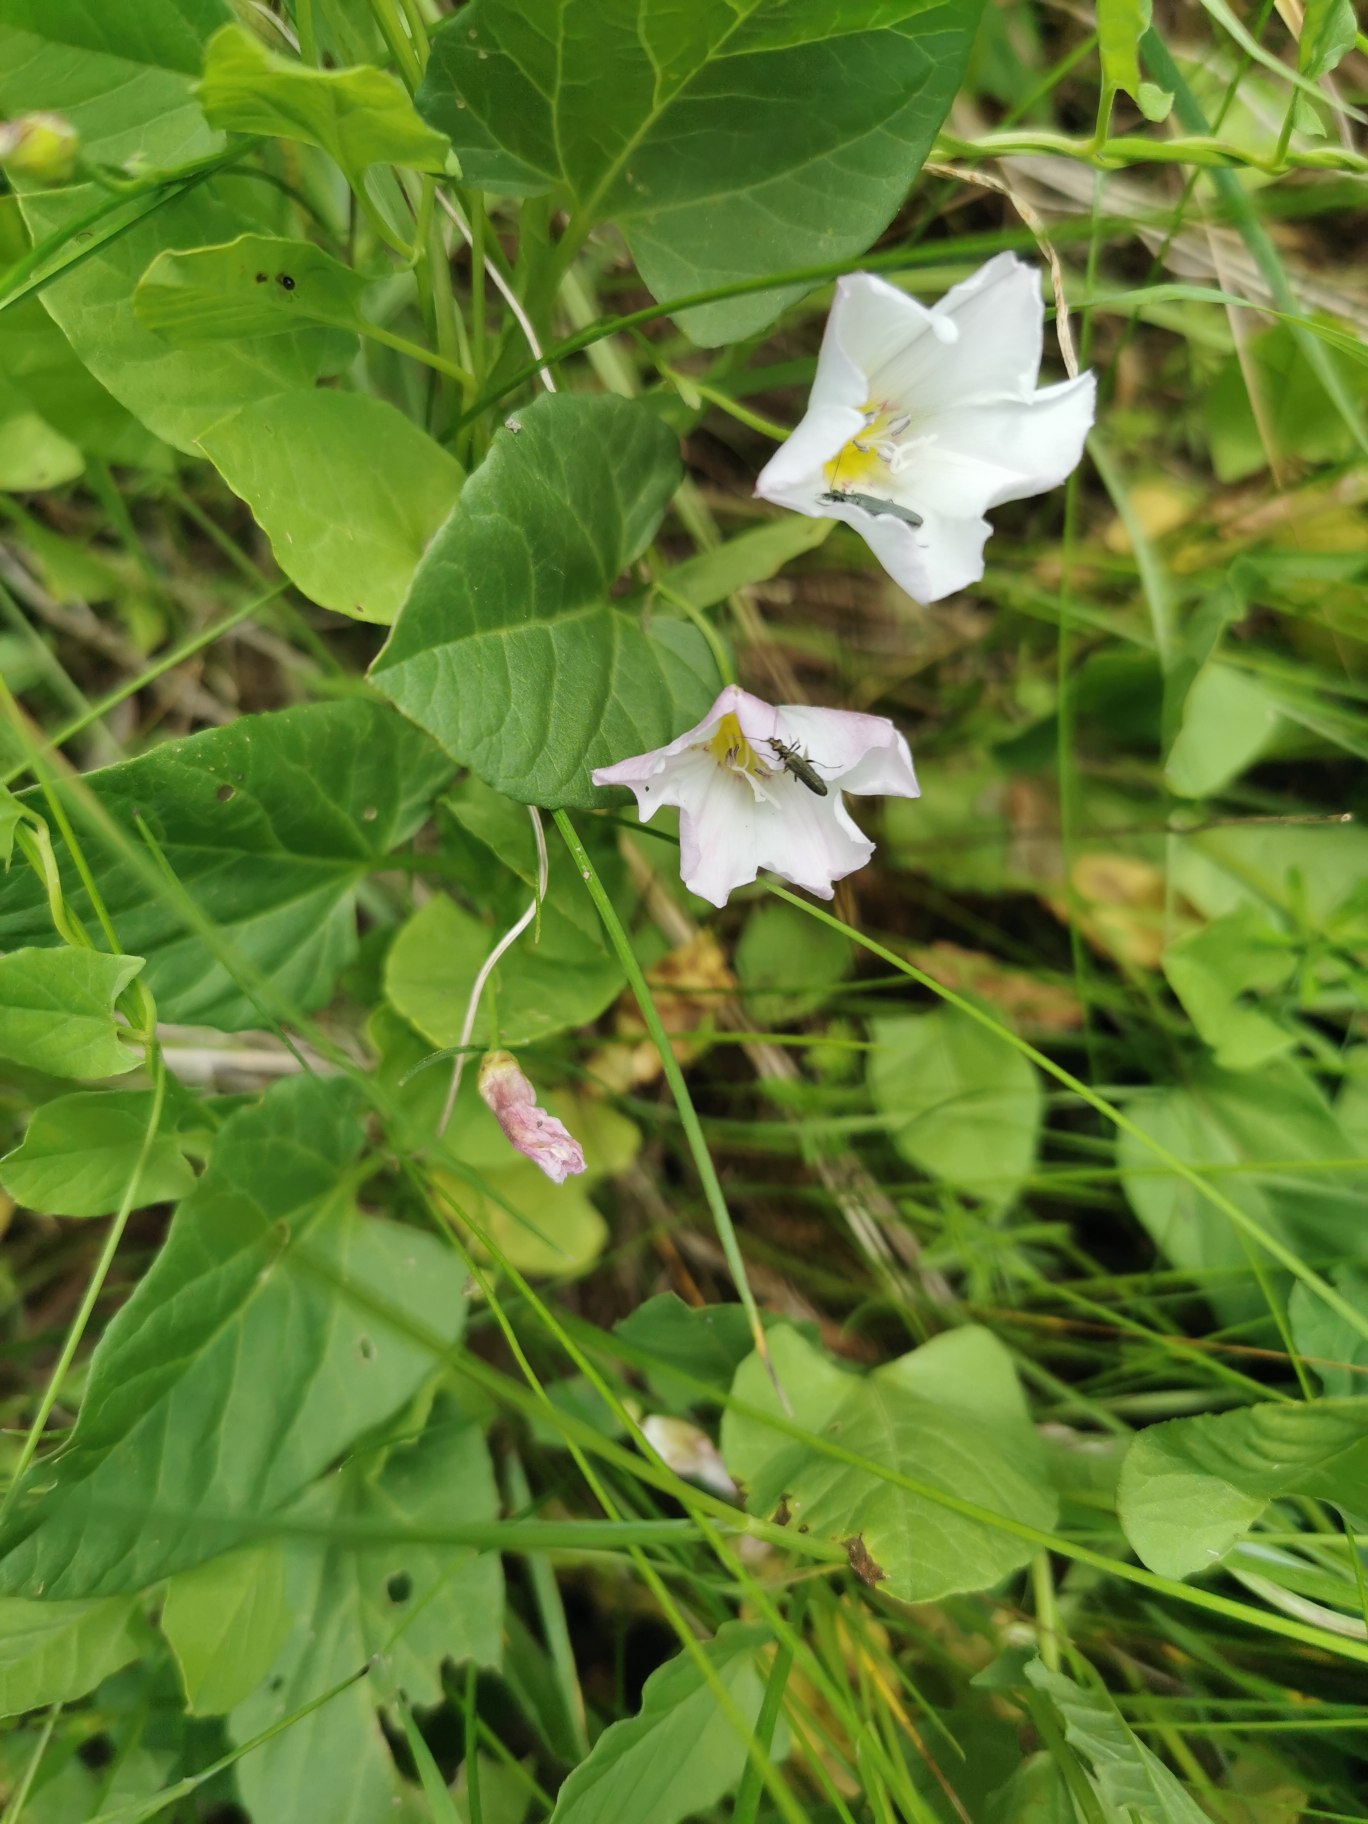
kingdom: Plantae
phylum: Tracheophyta
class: Magnoliopsida
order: Solanales
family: Convolvulaceae
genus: Convolvulus
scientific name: Convolvulus arvensis
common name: Ager-snerle
